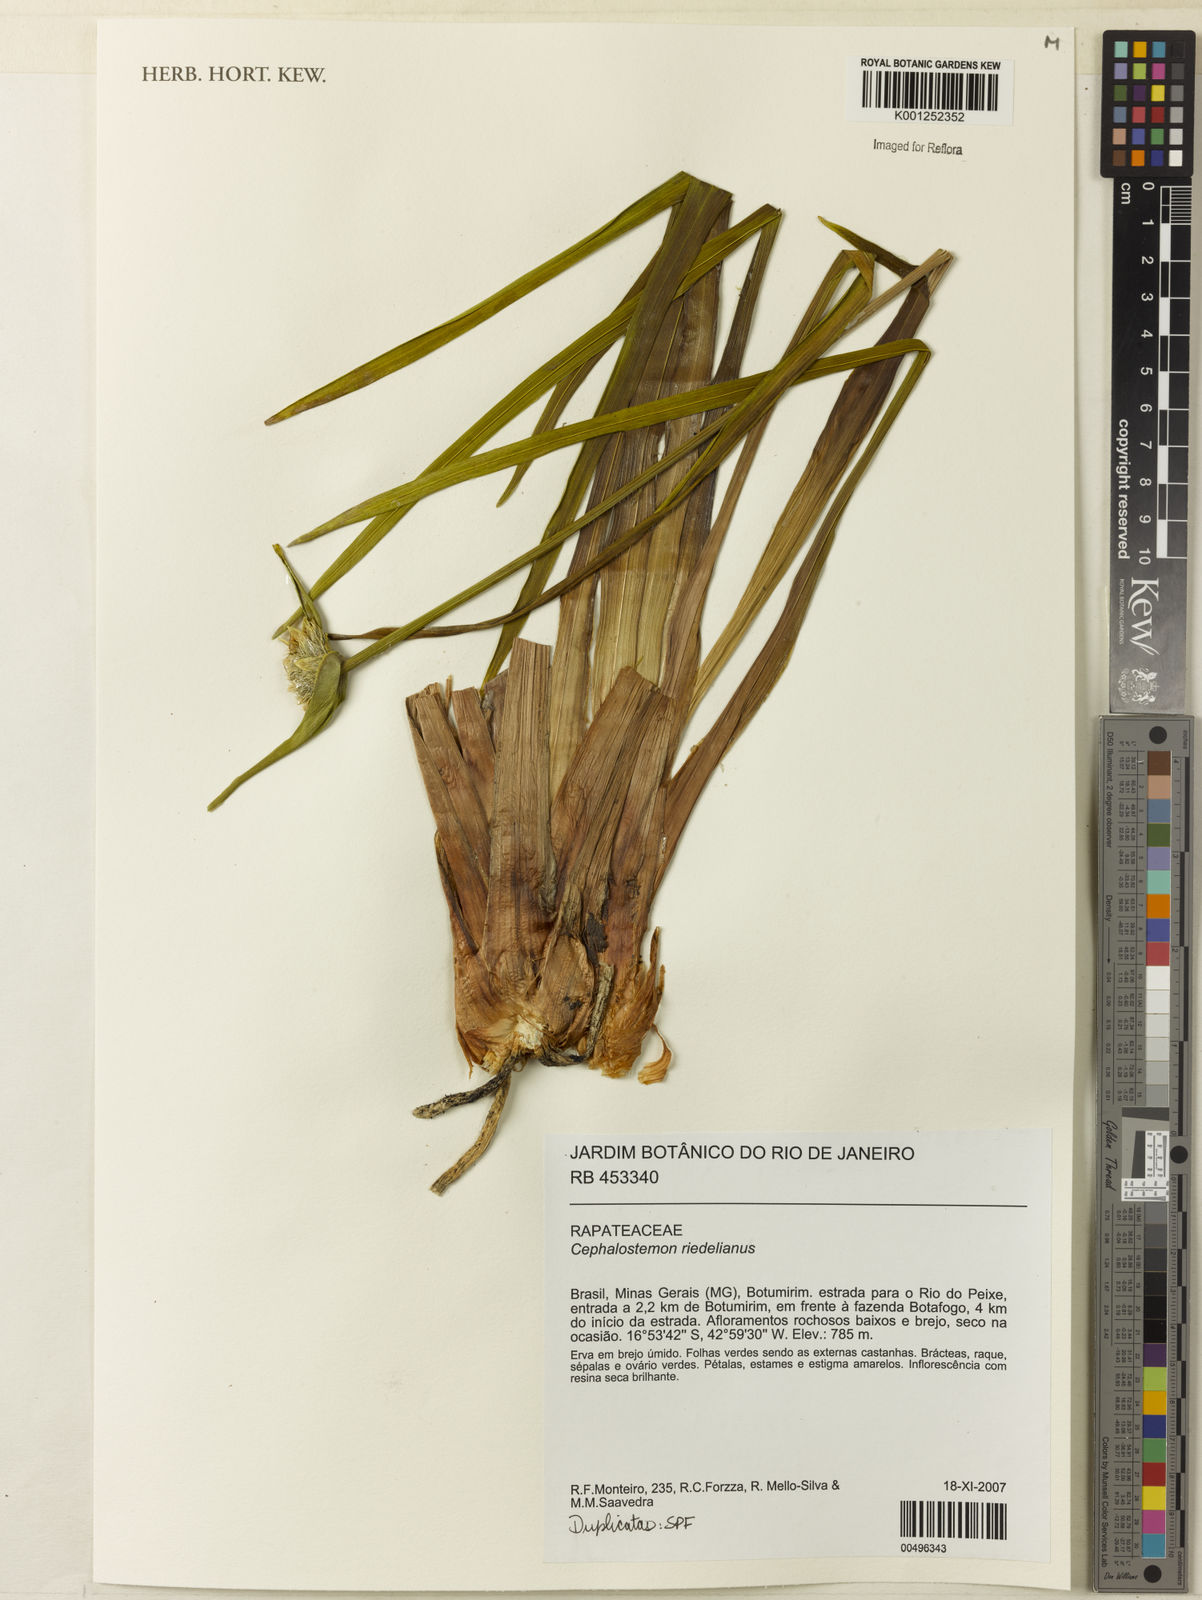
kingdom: Plantae
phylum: Tracheophyta
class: Liliopsida
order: Poales
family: Rapateaceae
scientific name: Rapateaceae
